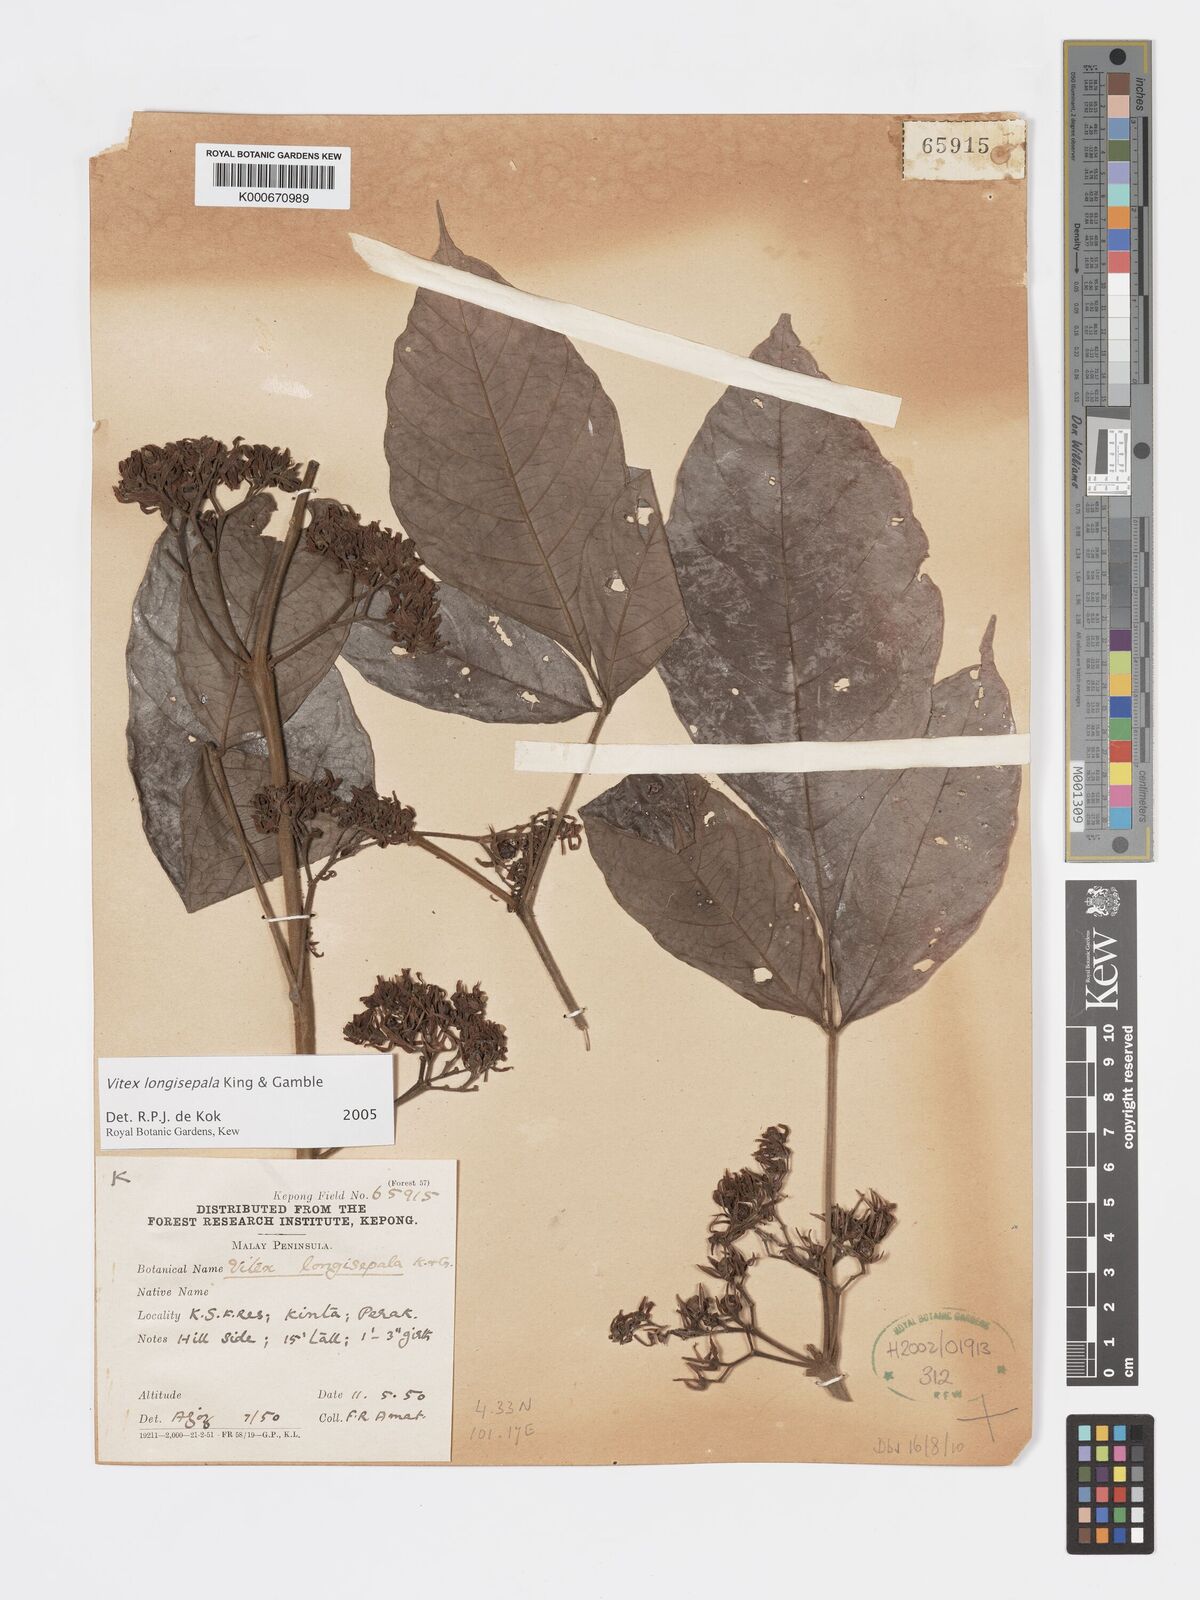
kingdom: Plantae
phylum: Tracheophyta
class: Magnoliopsida
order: Lamiales
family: Lamiaceae
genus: Vitex
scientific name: Vitex longisepala
